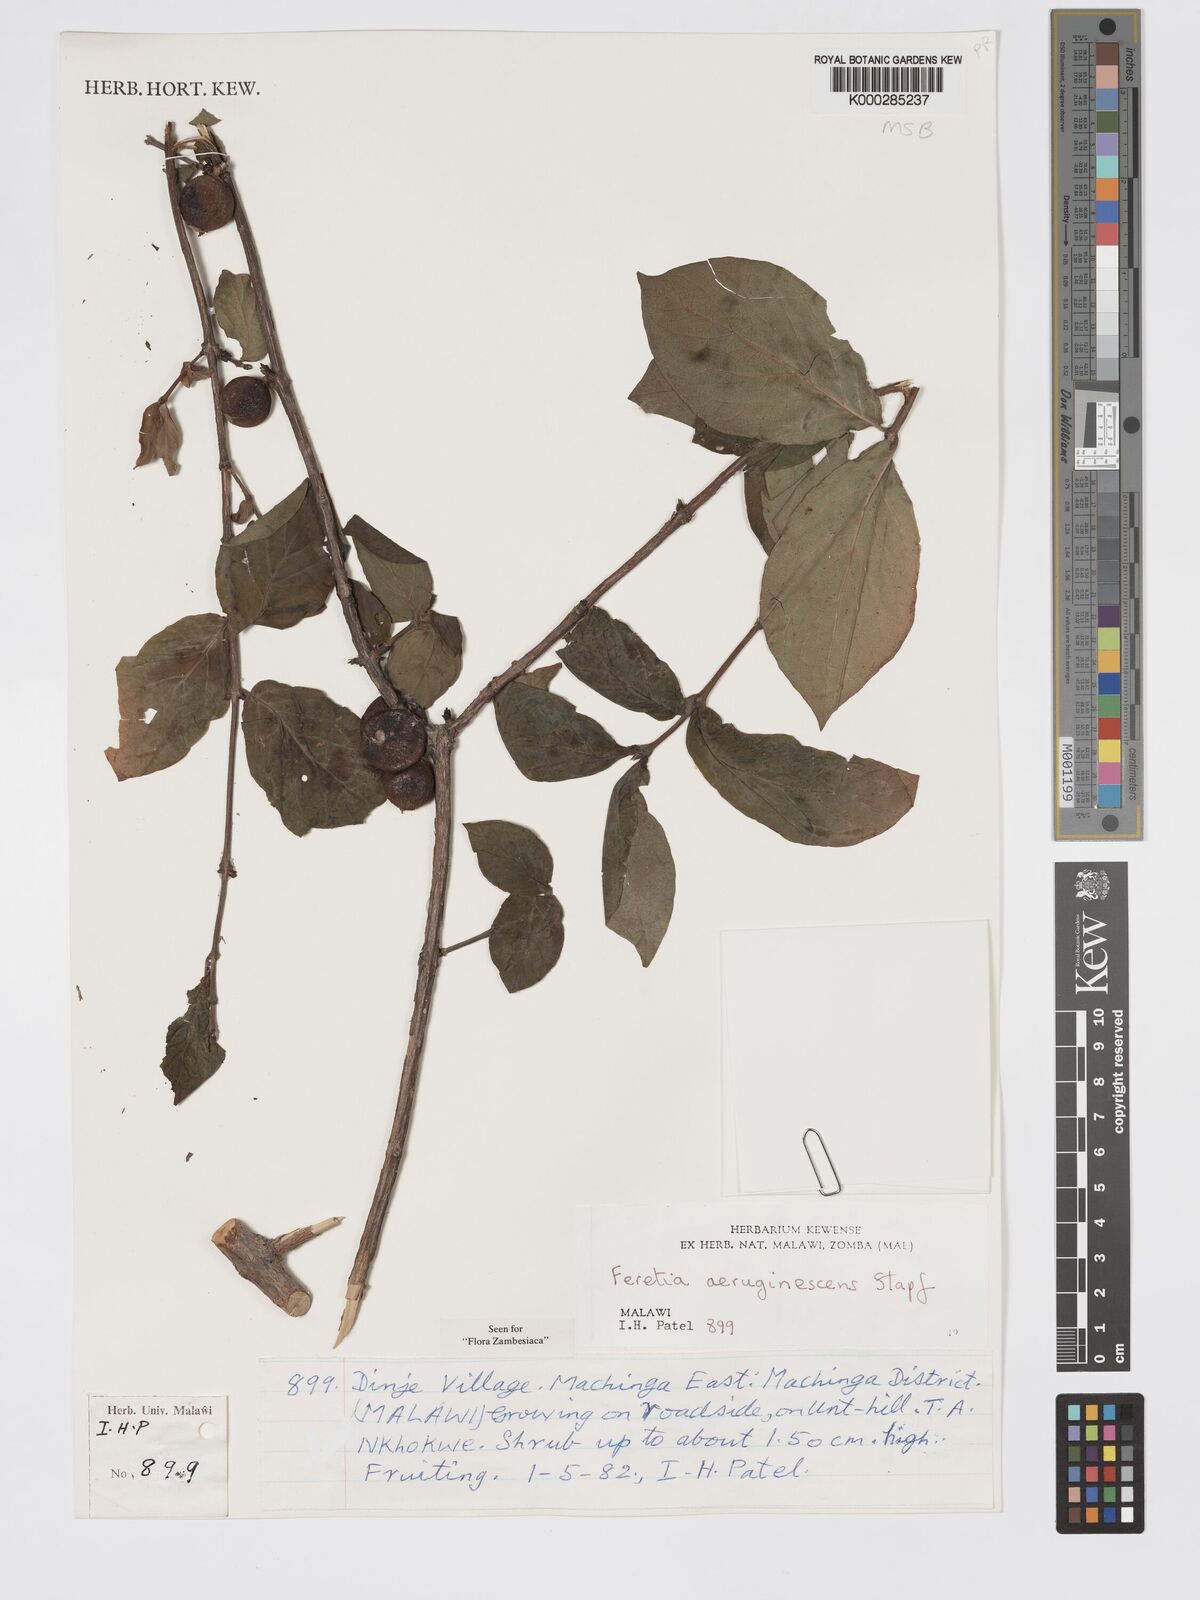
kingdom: Plantae
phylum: Tracheophyta
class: Magnoliopsida
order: Gentianales
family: Rubiaceae
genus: Feretia
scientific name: Feretia aeruginescens
